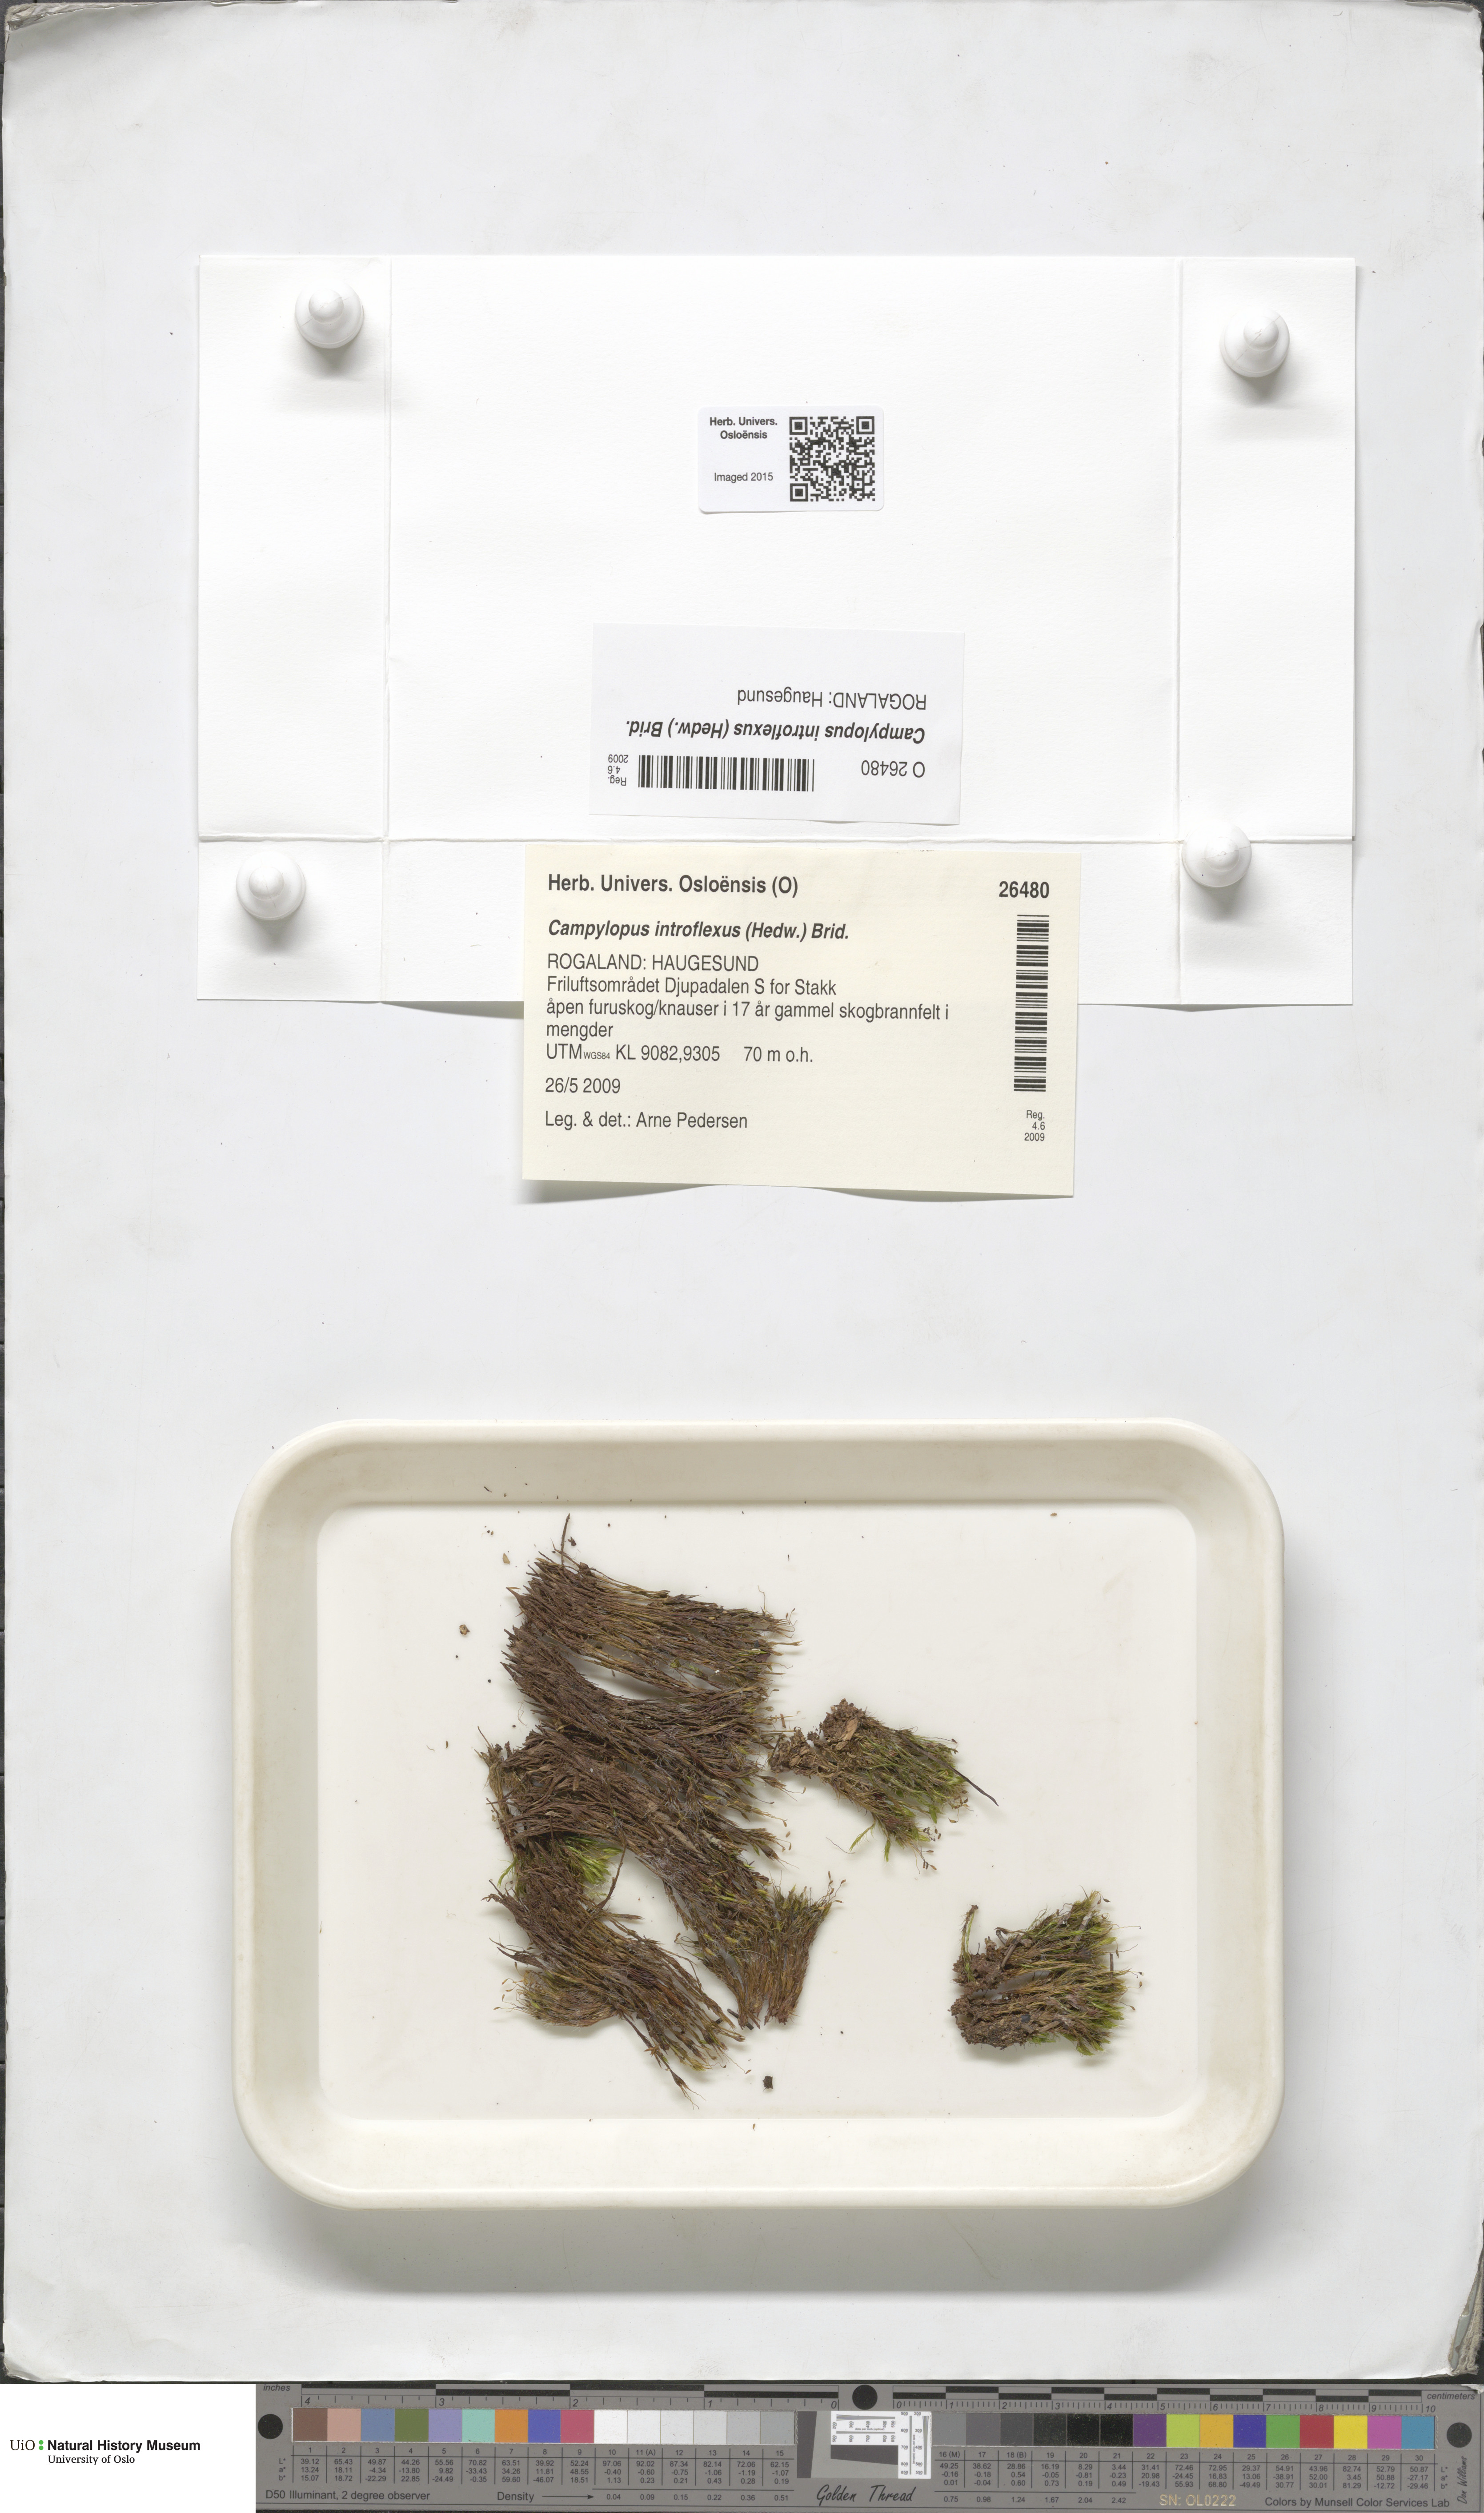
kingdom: Plantae
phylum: Bryophyta
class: Bryopsida
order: Dicranales
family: Leucobryaceae
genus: Campylopus
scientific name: Campylopus introflexus
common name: Heath star moss
